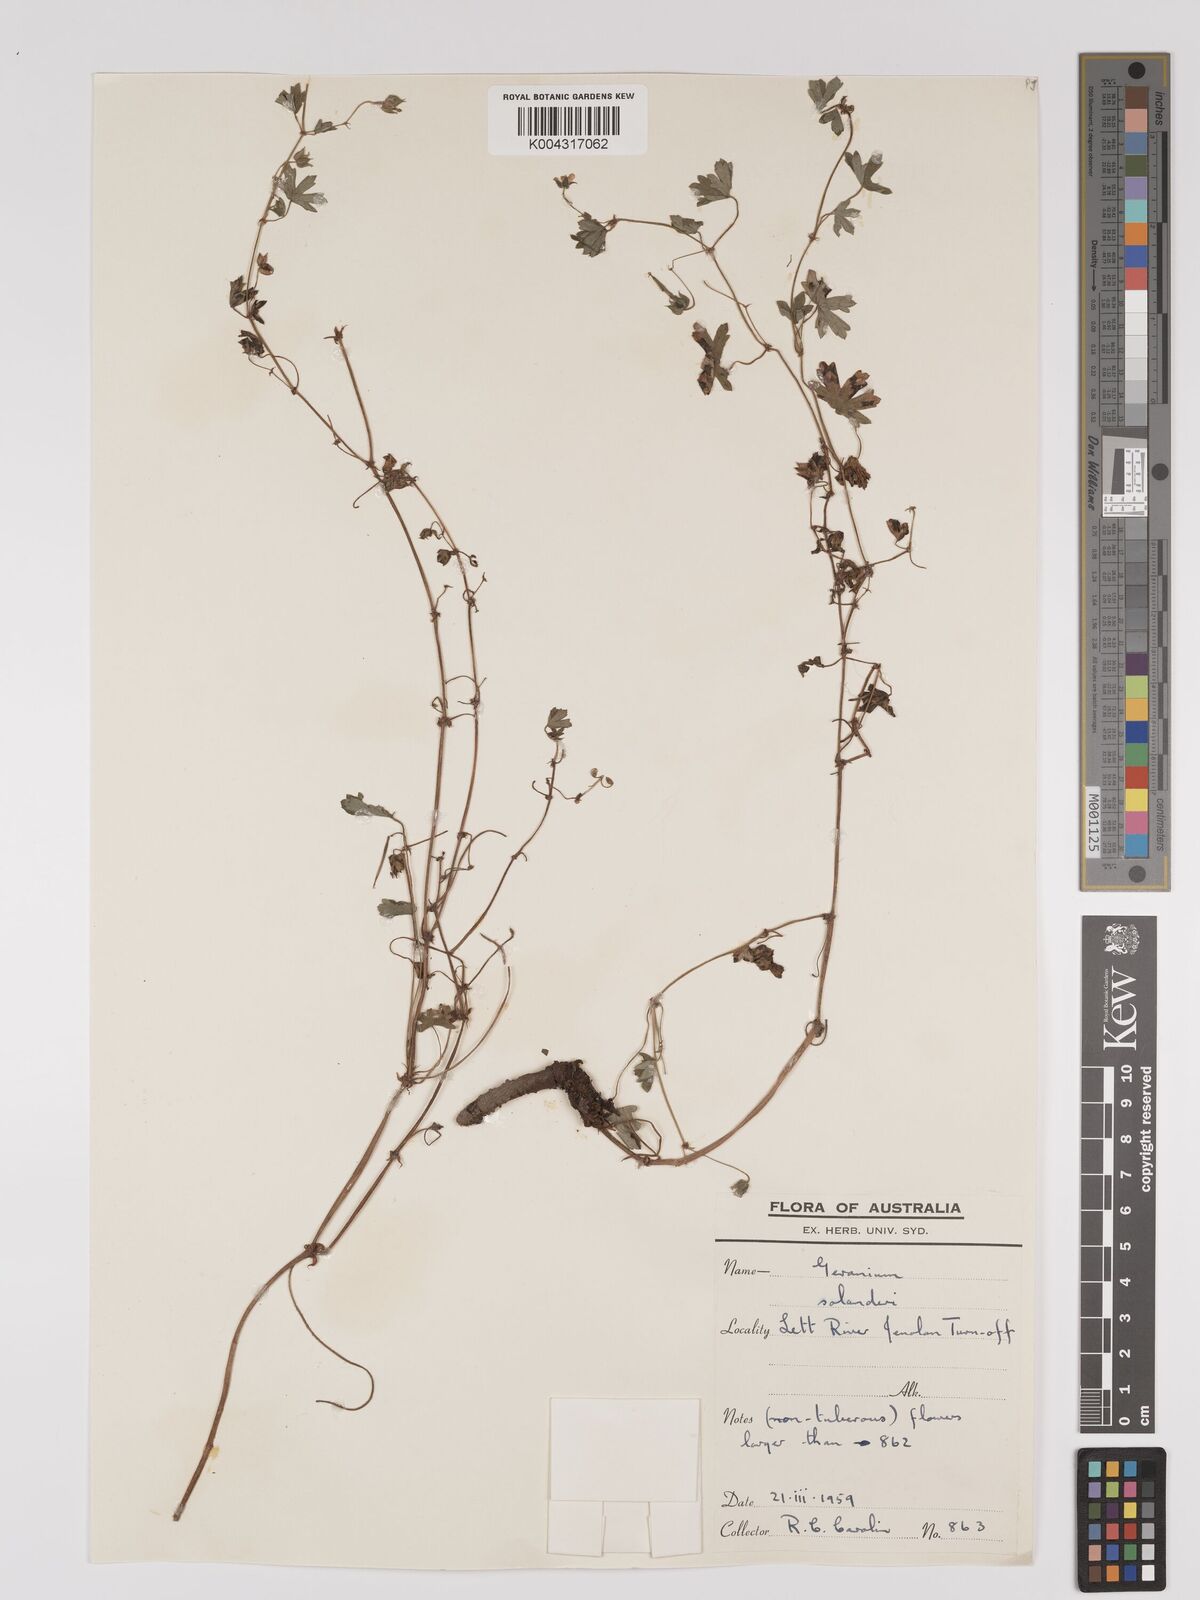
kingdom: Plantae
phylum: Tracheophyta
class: Magnoliopsida
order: Geraniales
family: Geraniaceae
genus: Geranium
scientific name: Geranium solanderi
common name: Solander's geranium
